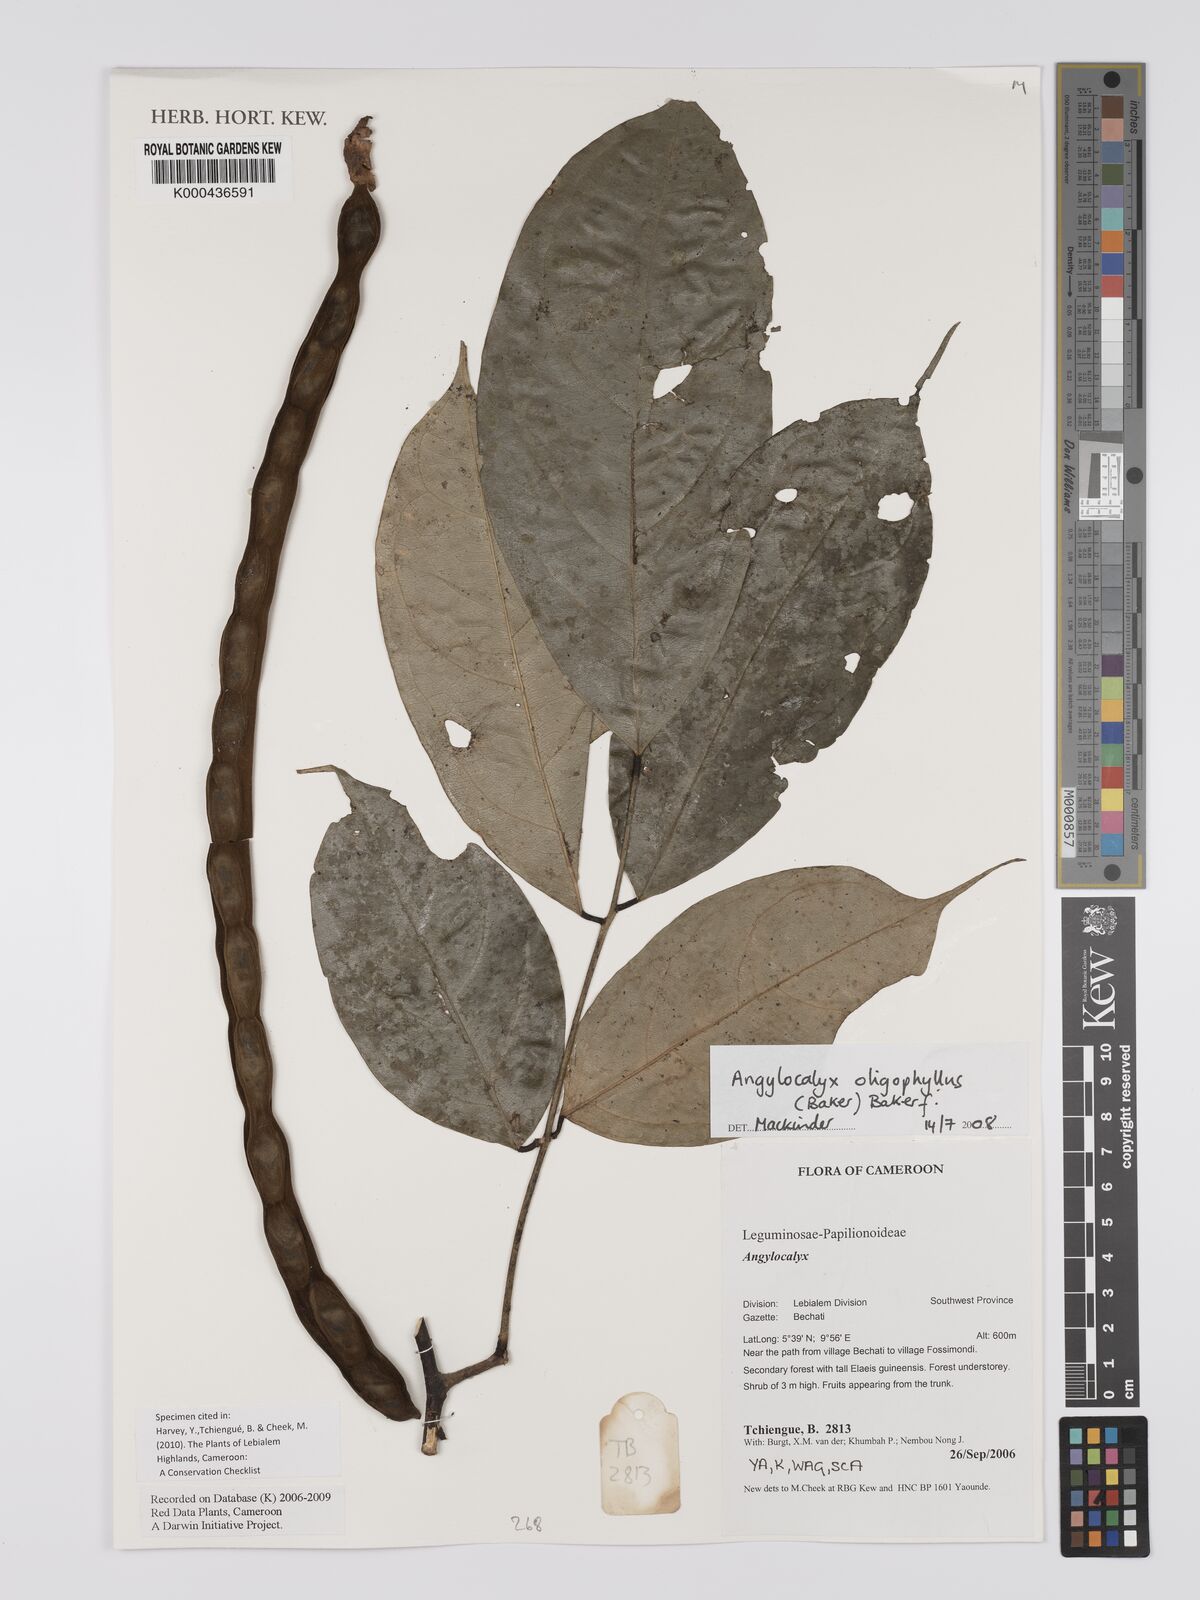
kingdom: Plantae
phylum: Tracheophyta
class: Magnoliopsida
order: Fabales
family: Fabaceae
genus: Angylocalyx
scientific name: Angylocalyx oligophyllus
